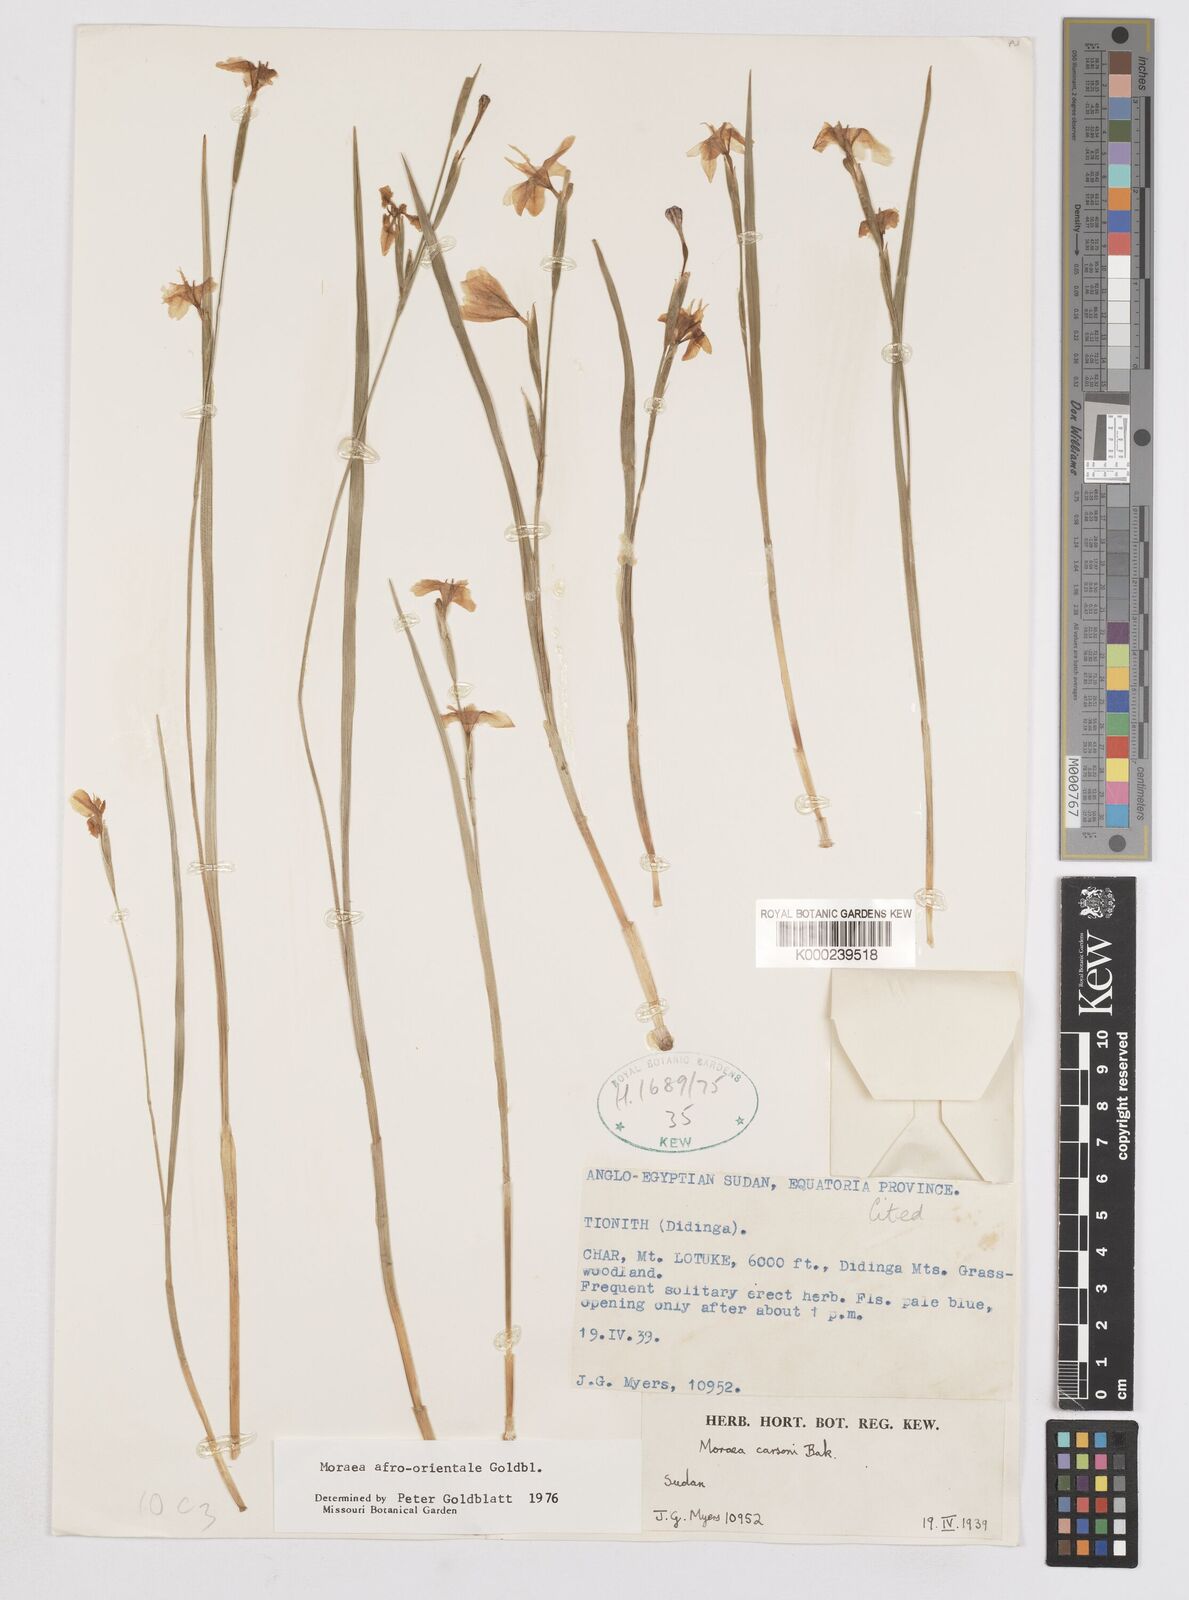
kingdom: Plantae
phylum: Tracheophyta
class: Liliopsida
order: Asparagales
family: Iridaceae
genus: Moraea
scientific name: Moraea
